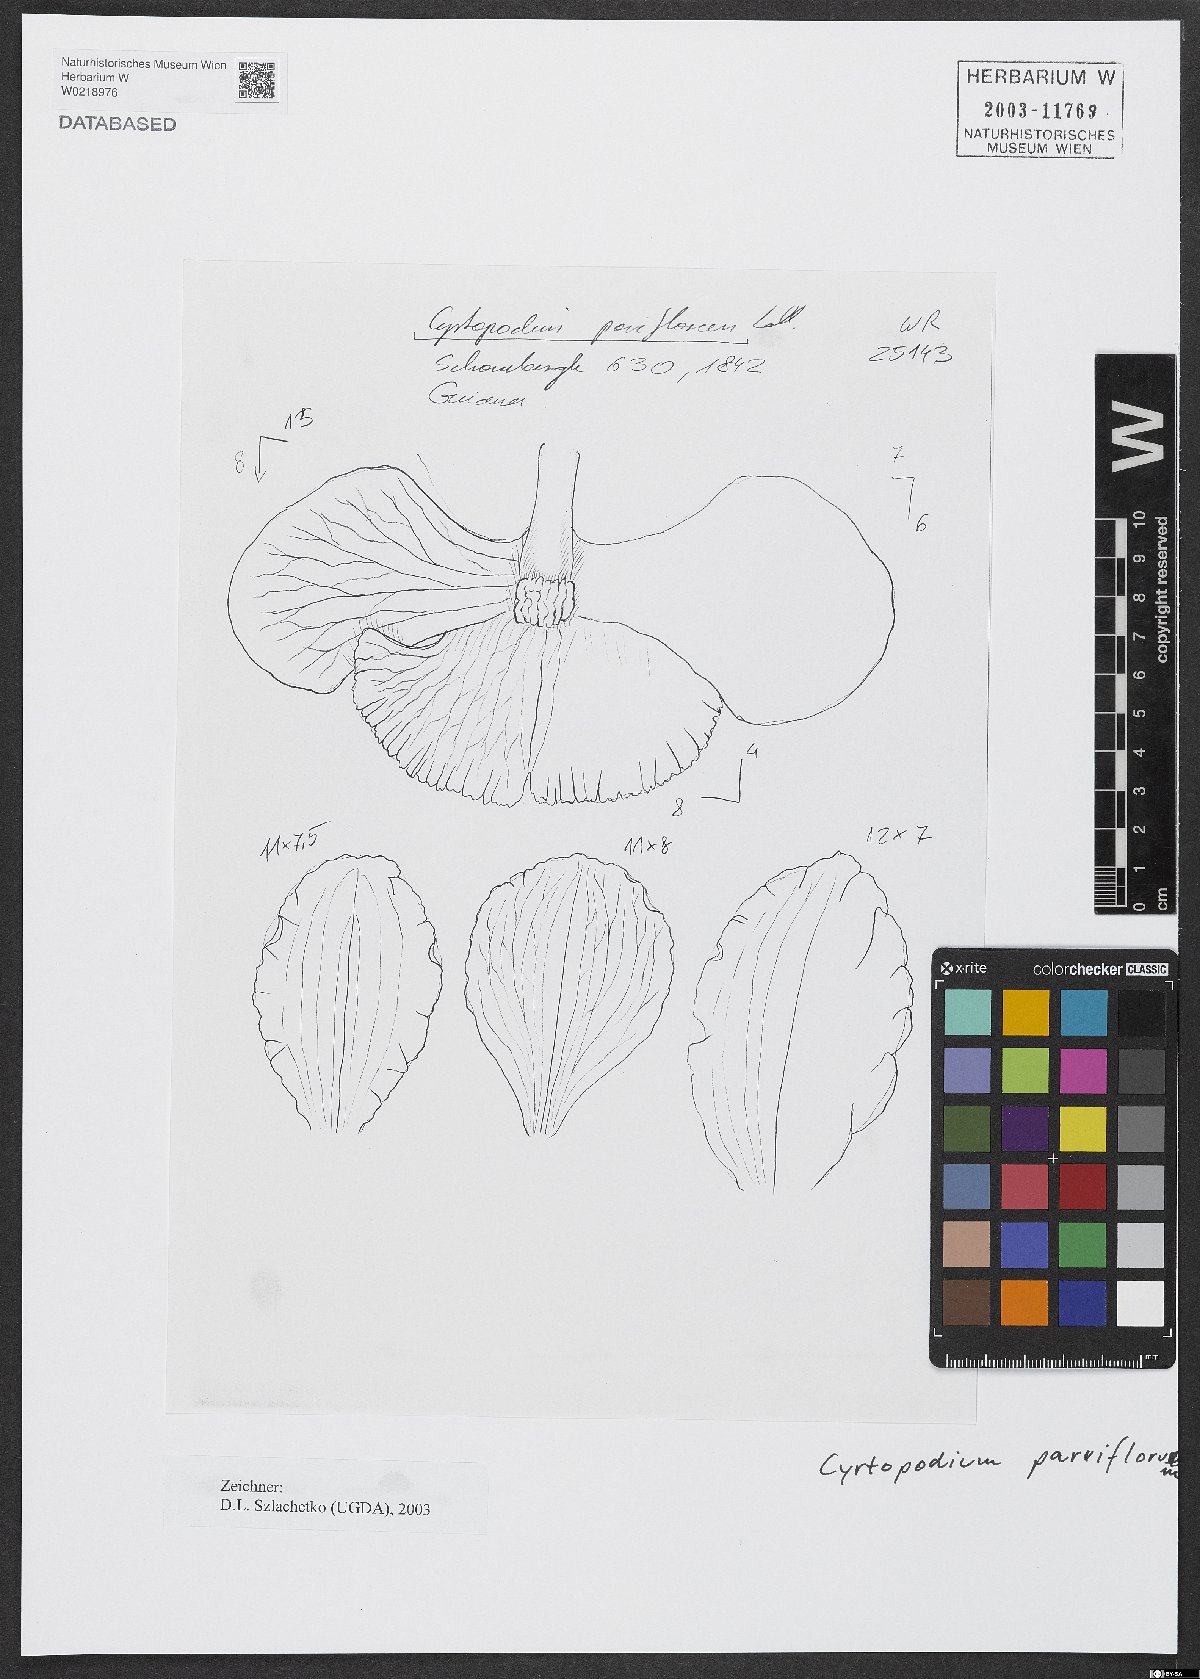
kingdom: Plantae
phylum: Tracheophyta
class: Liliopsida
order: Asparagales
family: Orchidaceae
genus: Cyrtopodium
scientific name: Cyrtopodium parviflorum
